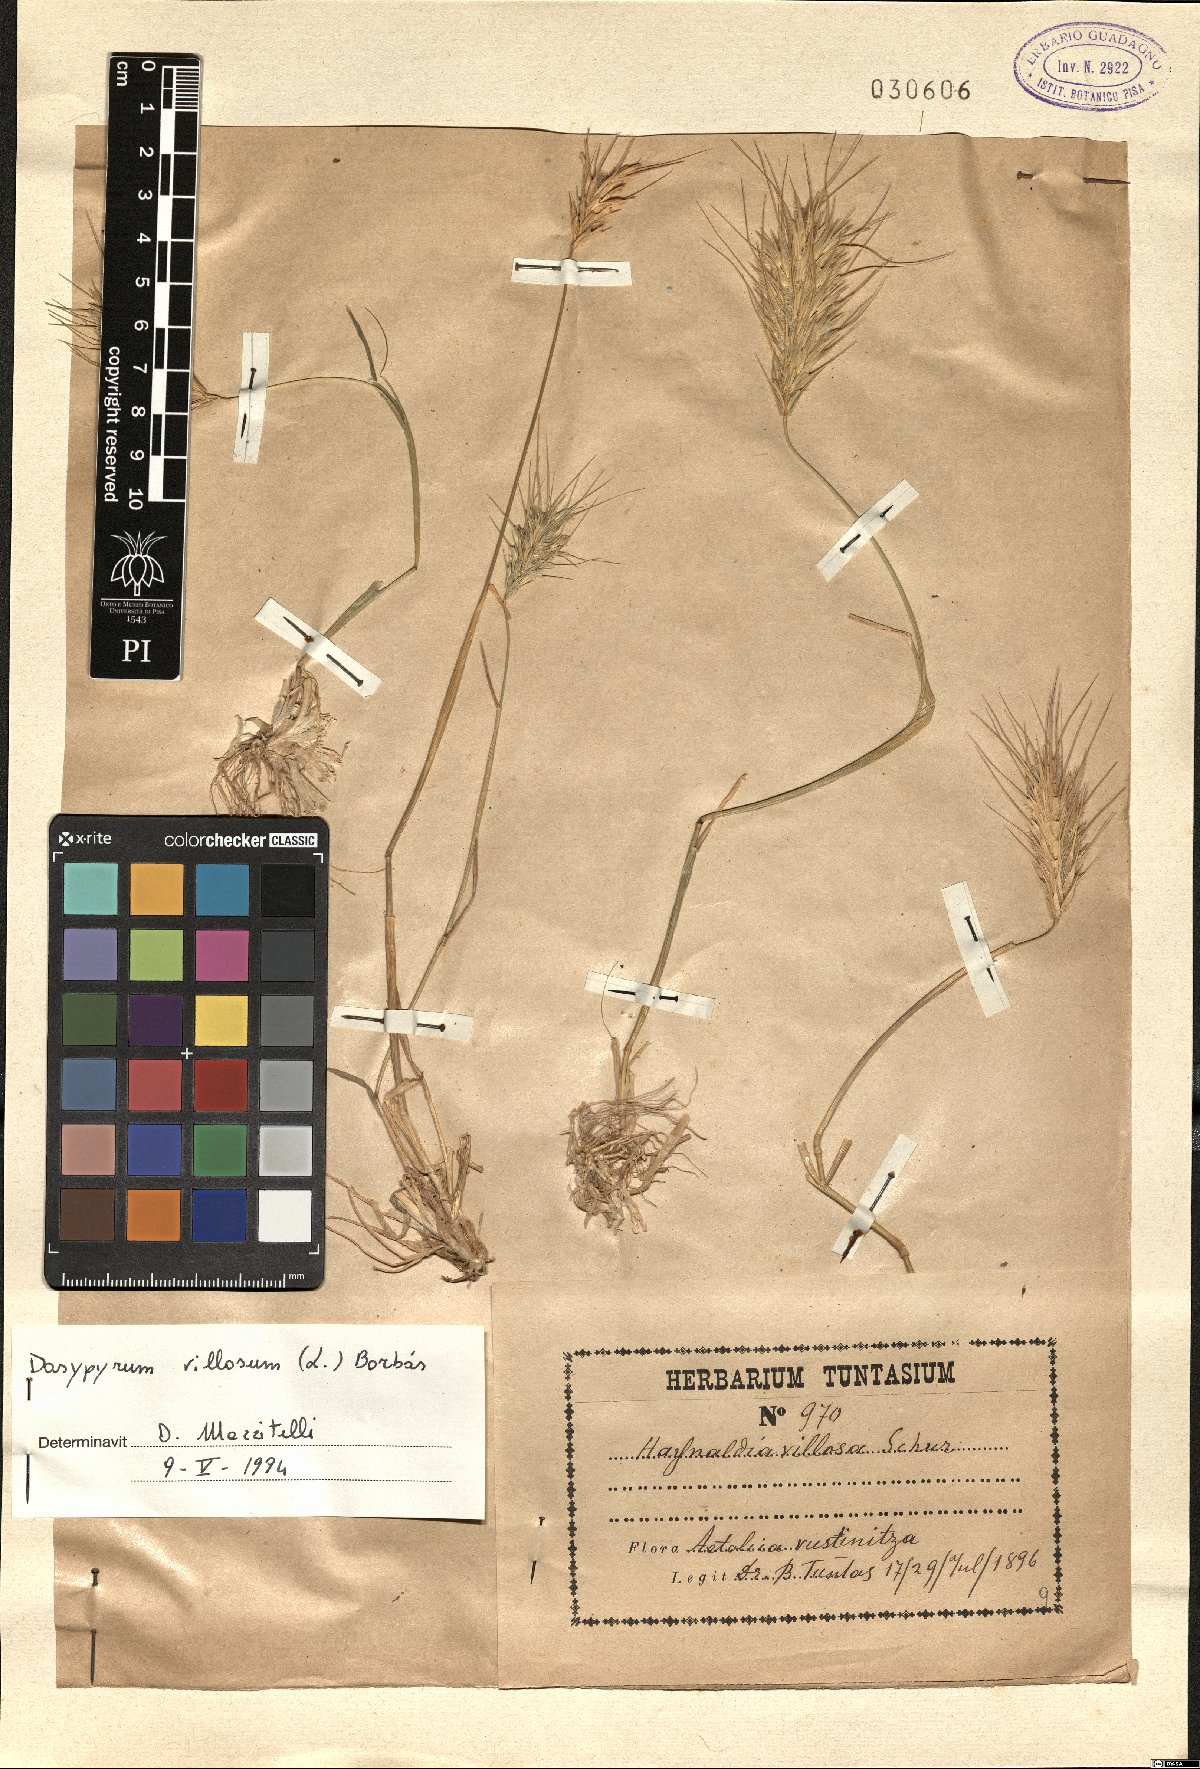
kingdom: Plantae
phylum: Tracheophyta
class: Liliopsida
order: Poales
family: Poaceae
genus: Dasypyrum
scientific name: Dasypyrum villosum
